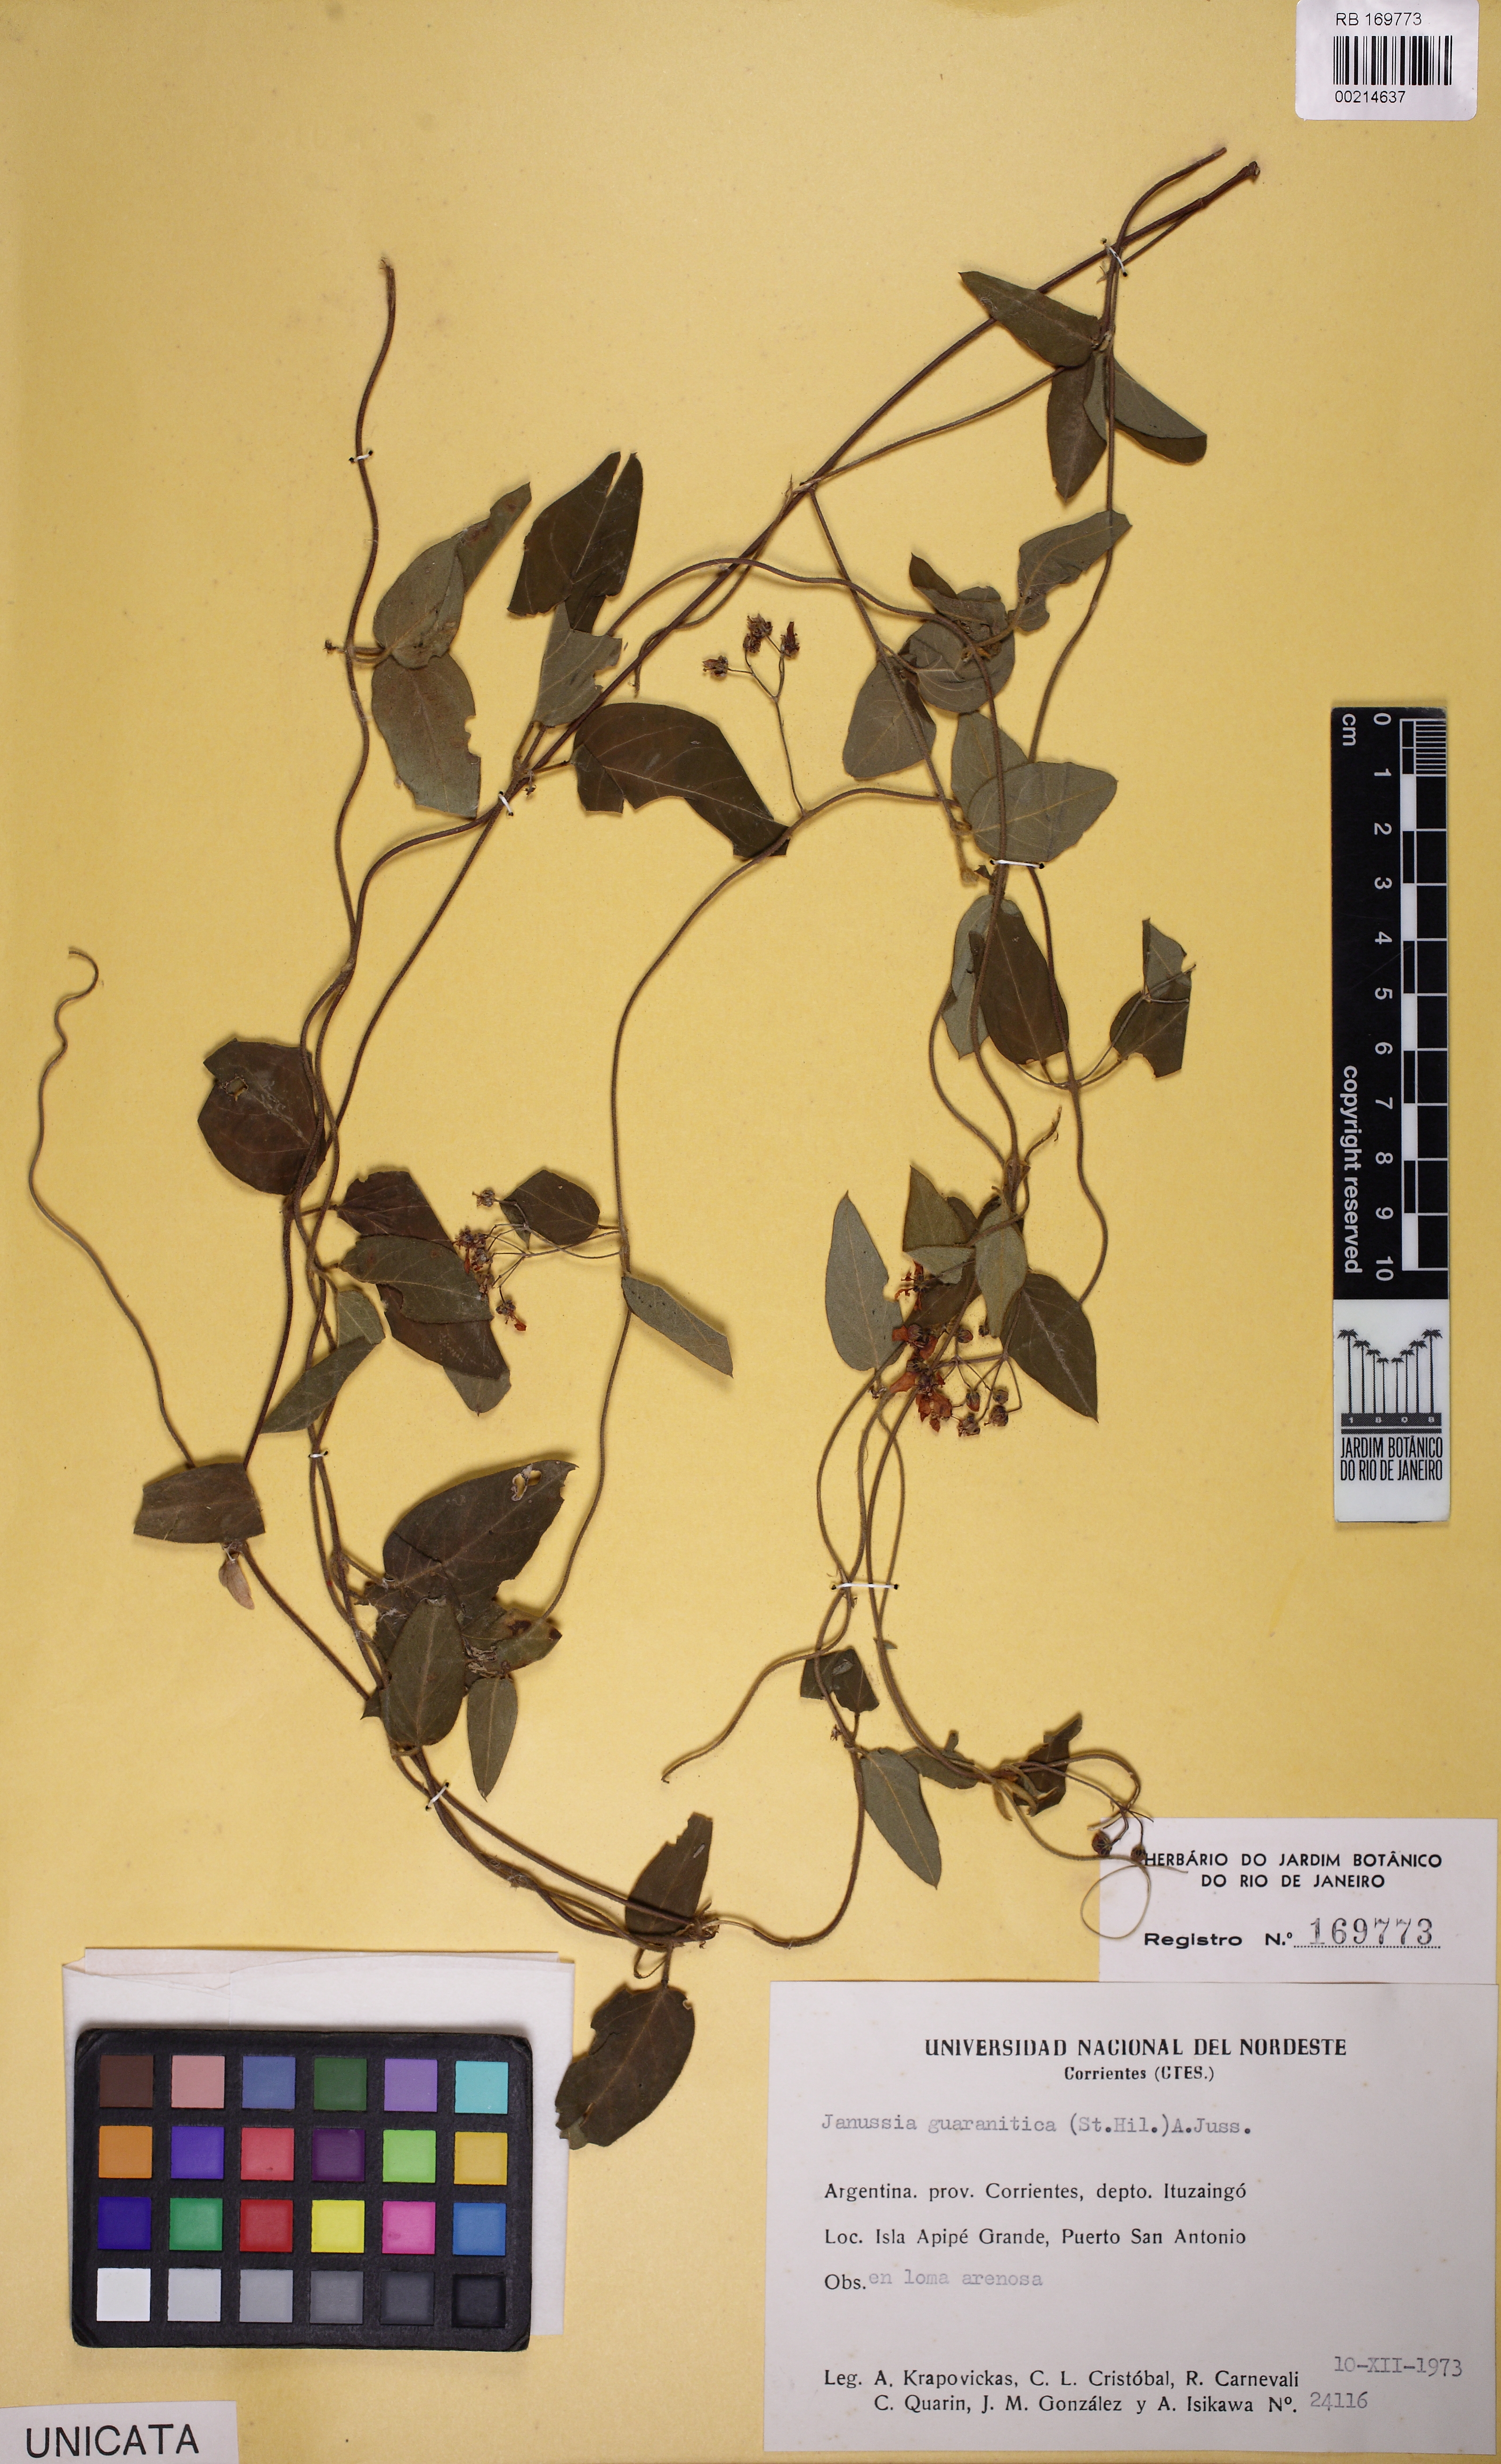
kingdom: Plantae
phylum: Tracheophyta
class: Magnoliopsida
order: Malpighiales
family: Malpighiaceae
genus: Janusia
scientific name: Janusia guaranitica
